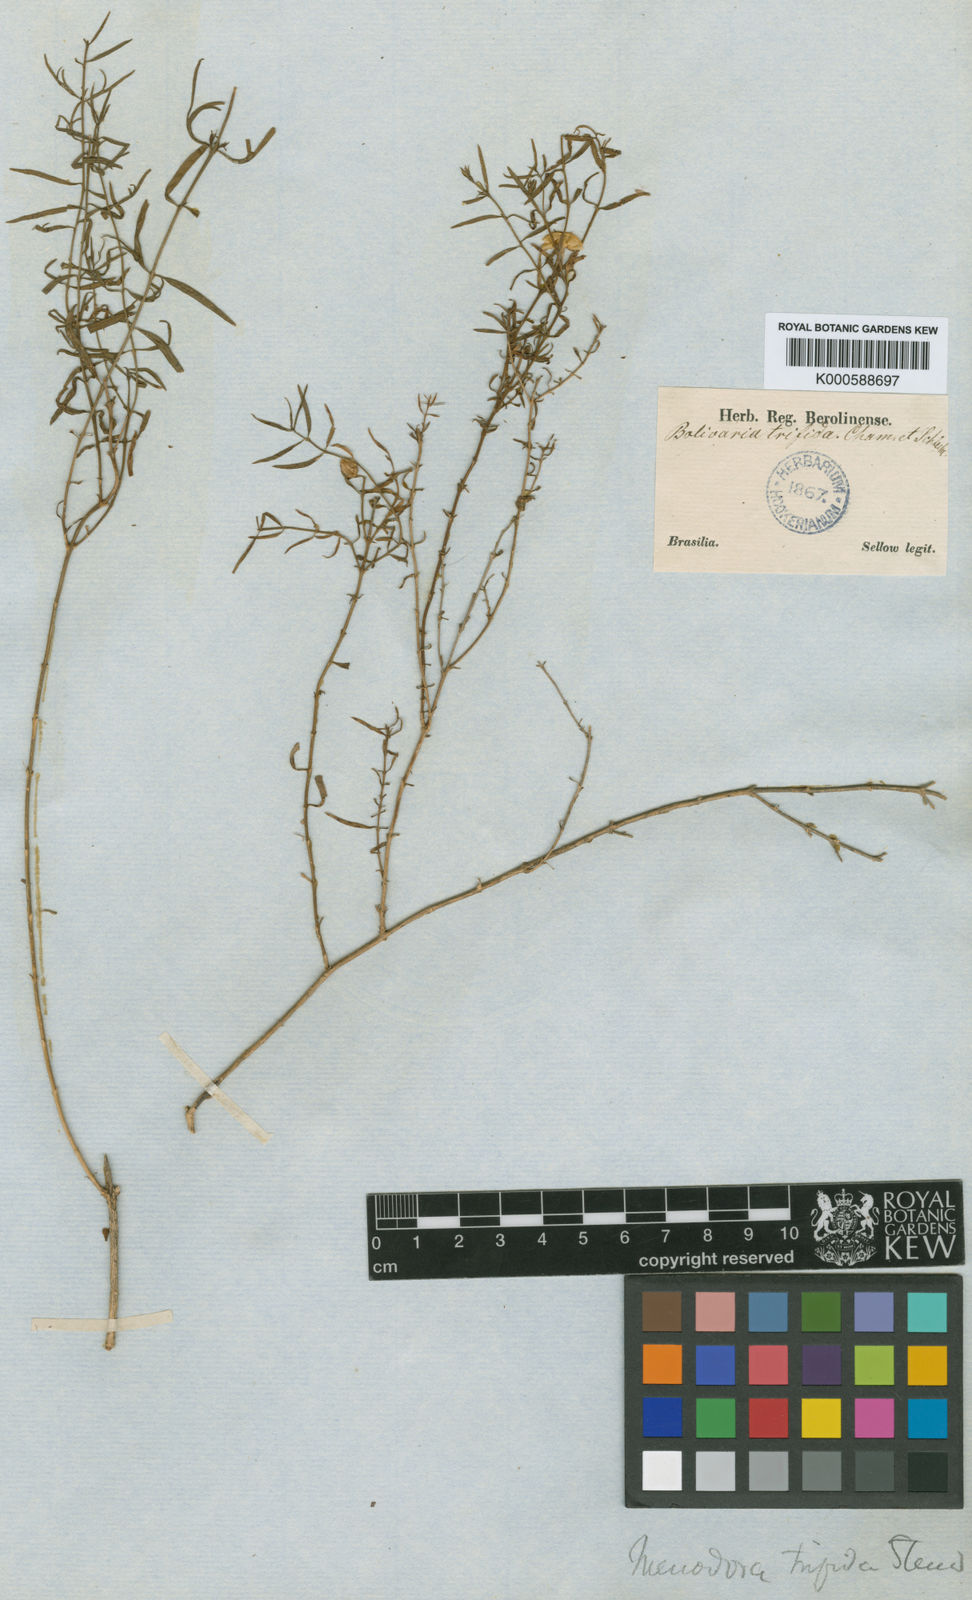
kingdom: Plantae
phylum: Tracheophyta
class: Magnoliopsida
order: Lamiales
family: Oleaceae
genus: Menodora
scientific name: Menodora integrifolia
